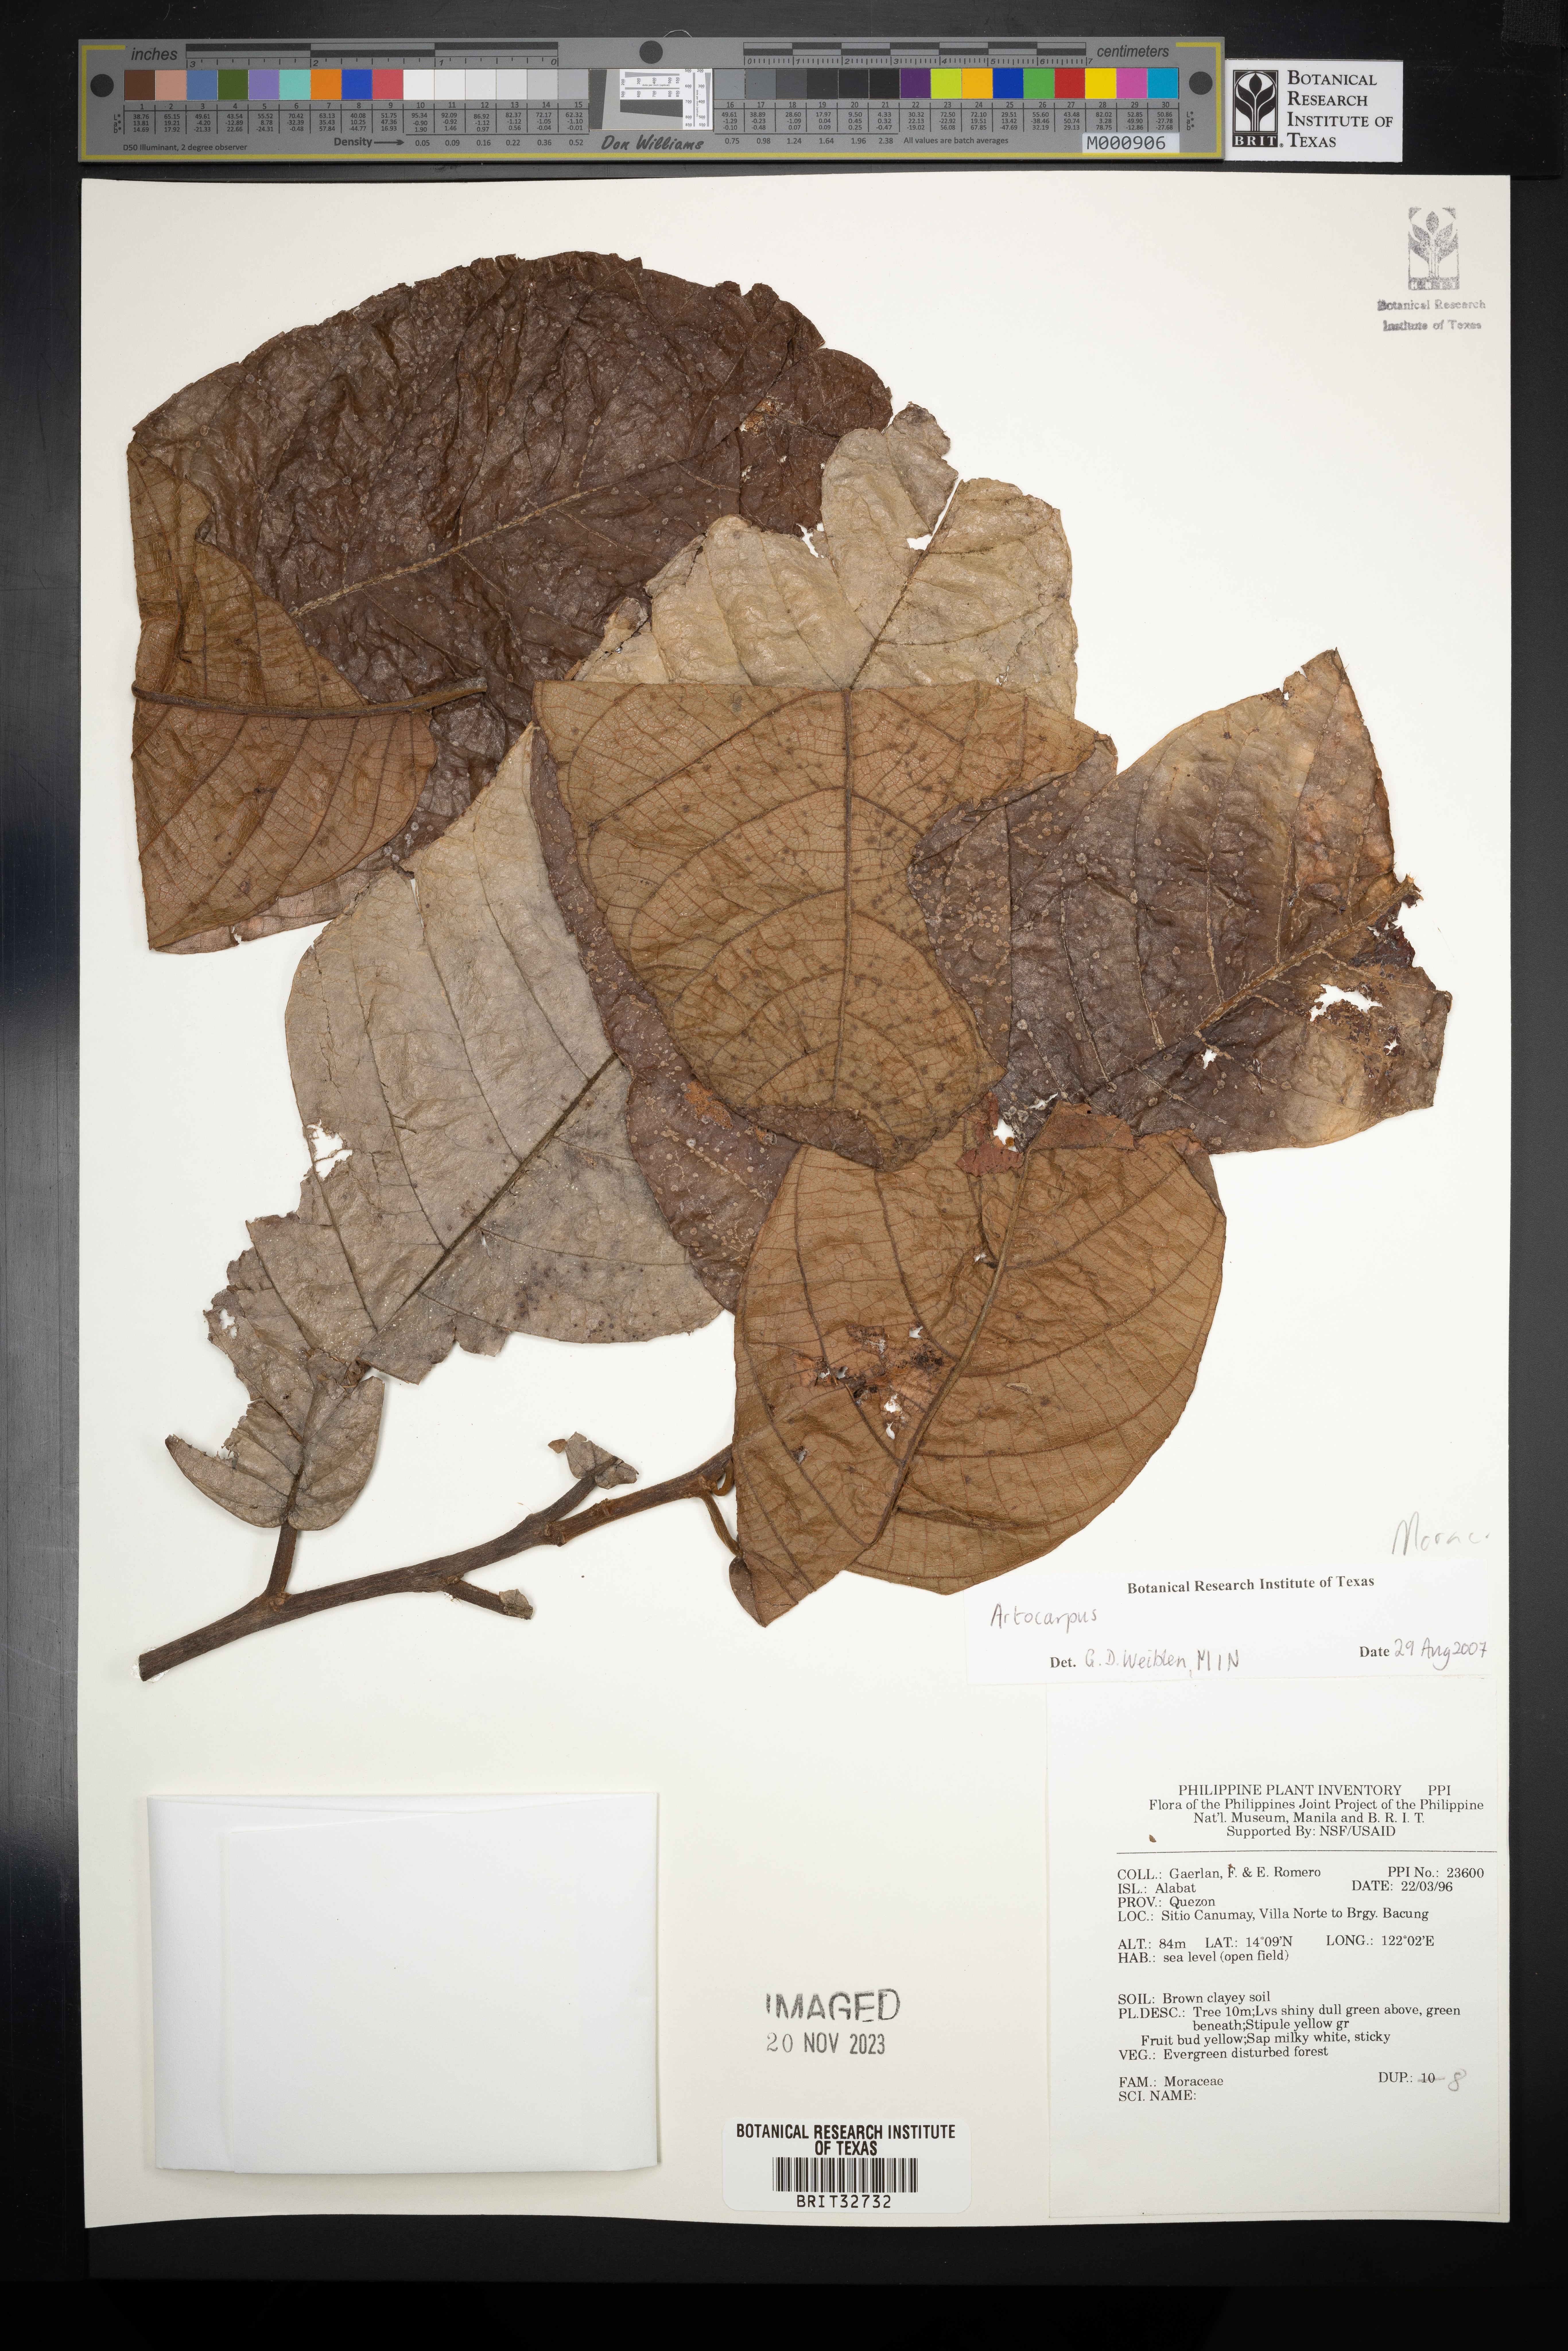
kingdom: Plantae
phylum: Tracheophyta
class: Magnoliopsida
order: Rosales
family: Moraceae
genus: Artocarpus
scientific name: Artocarpus
